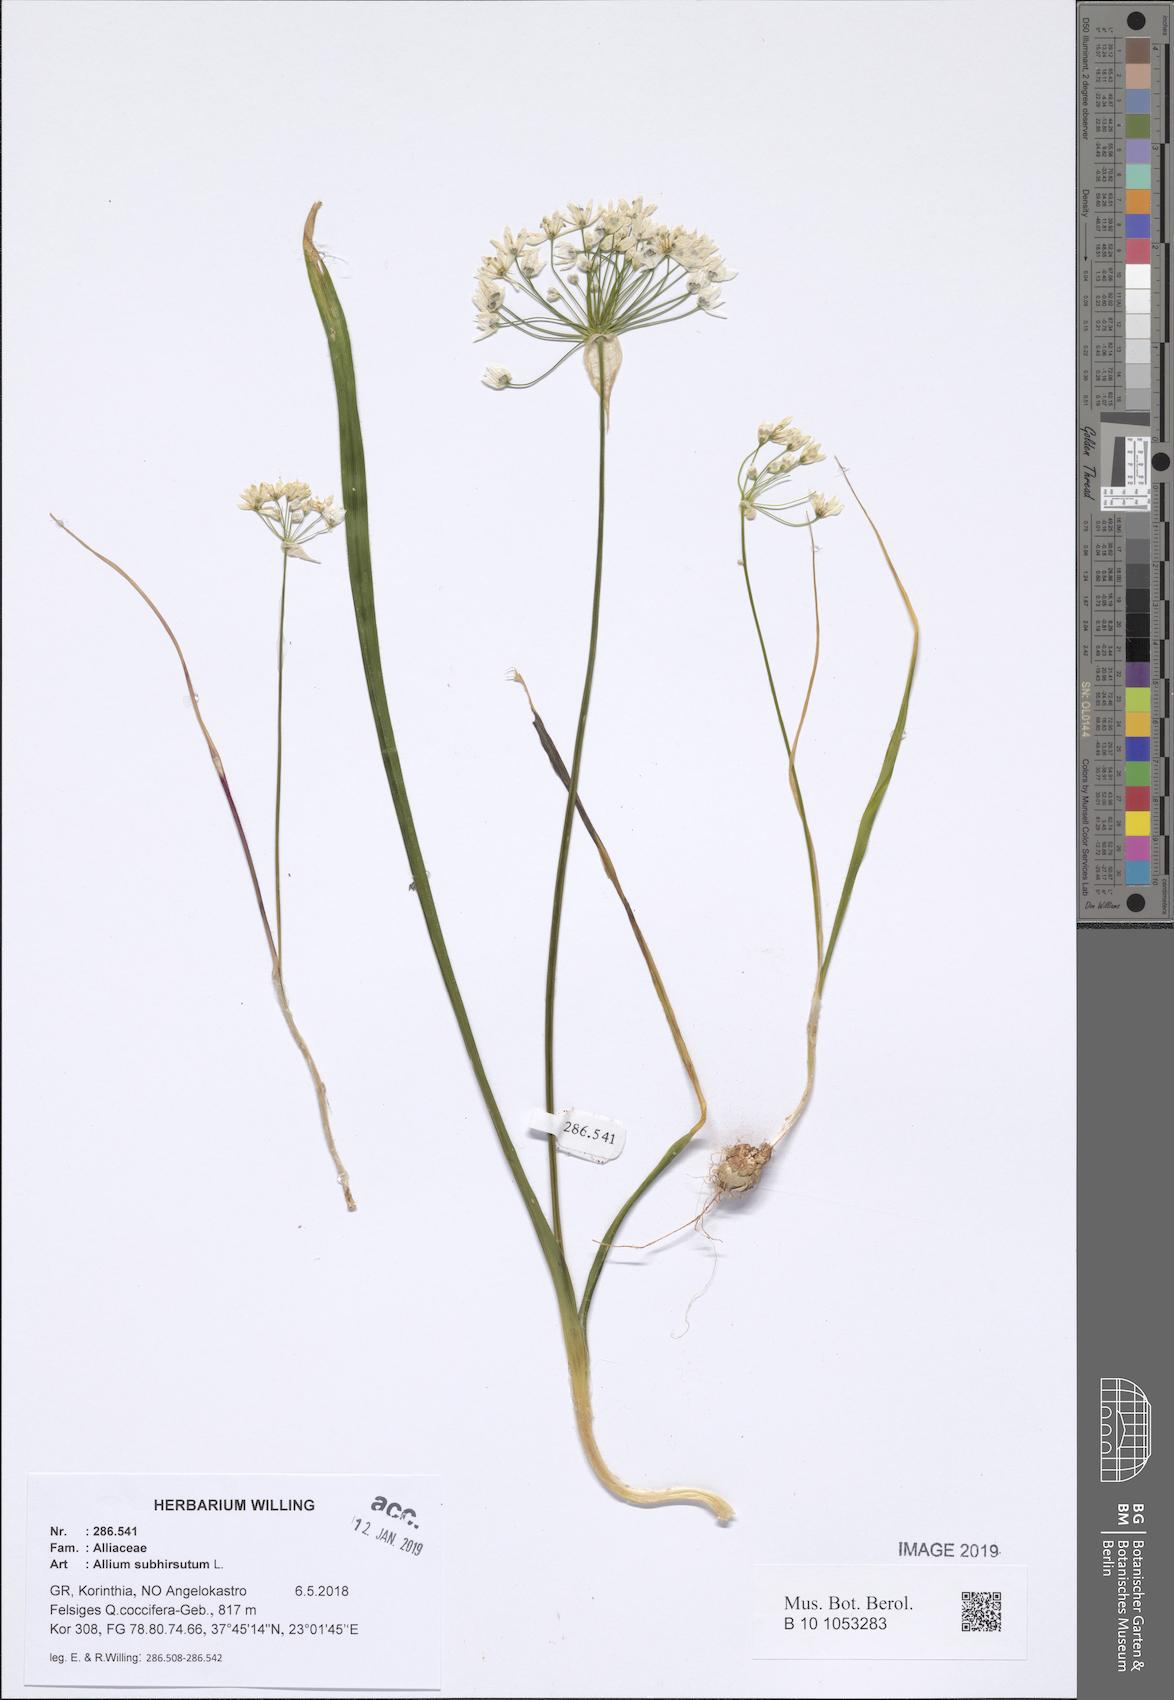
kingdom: Plantae
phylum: Tracheophyta
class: Liliopsida
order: Asparagales
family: Amaryllidaceae
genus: Allium
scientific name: Allium subhirsutum
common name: Hairy garlic
